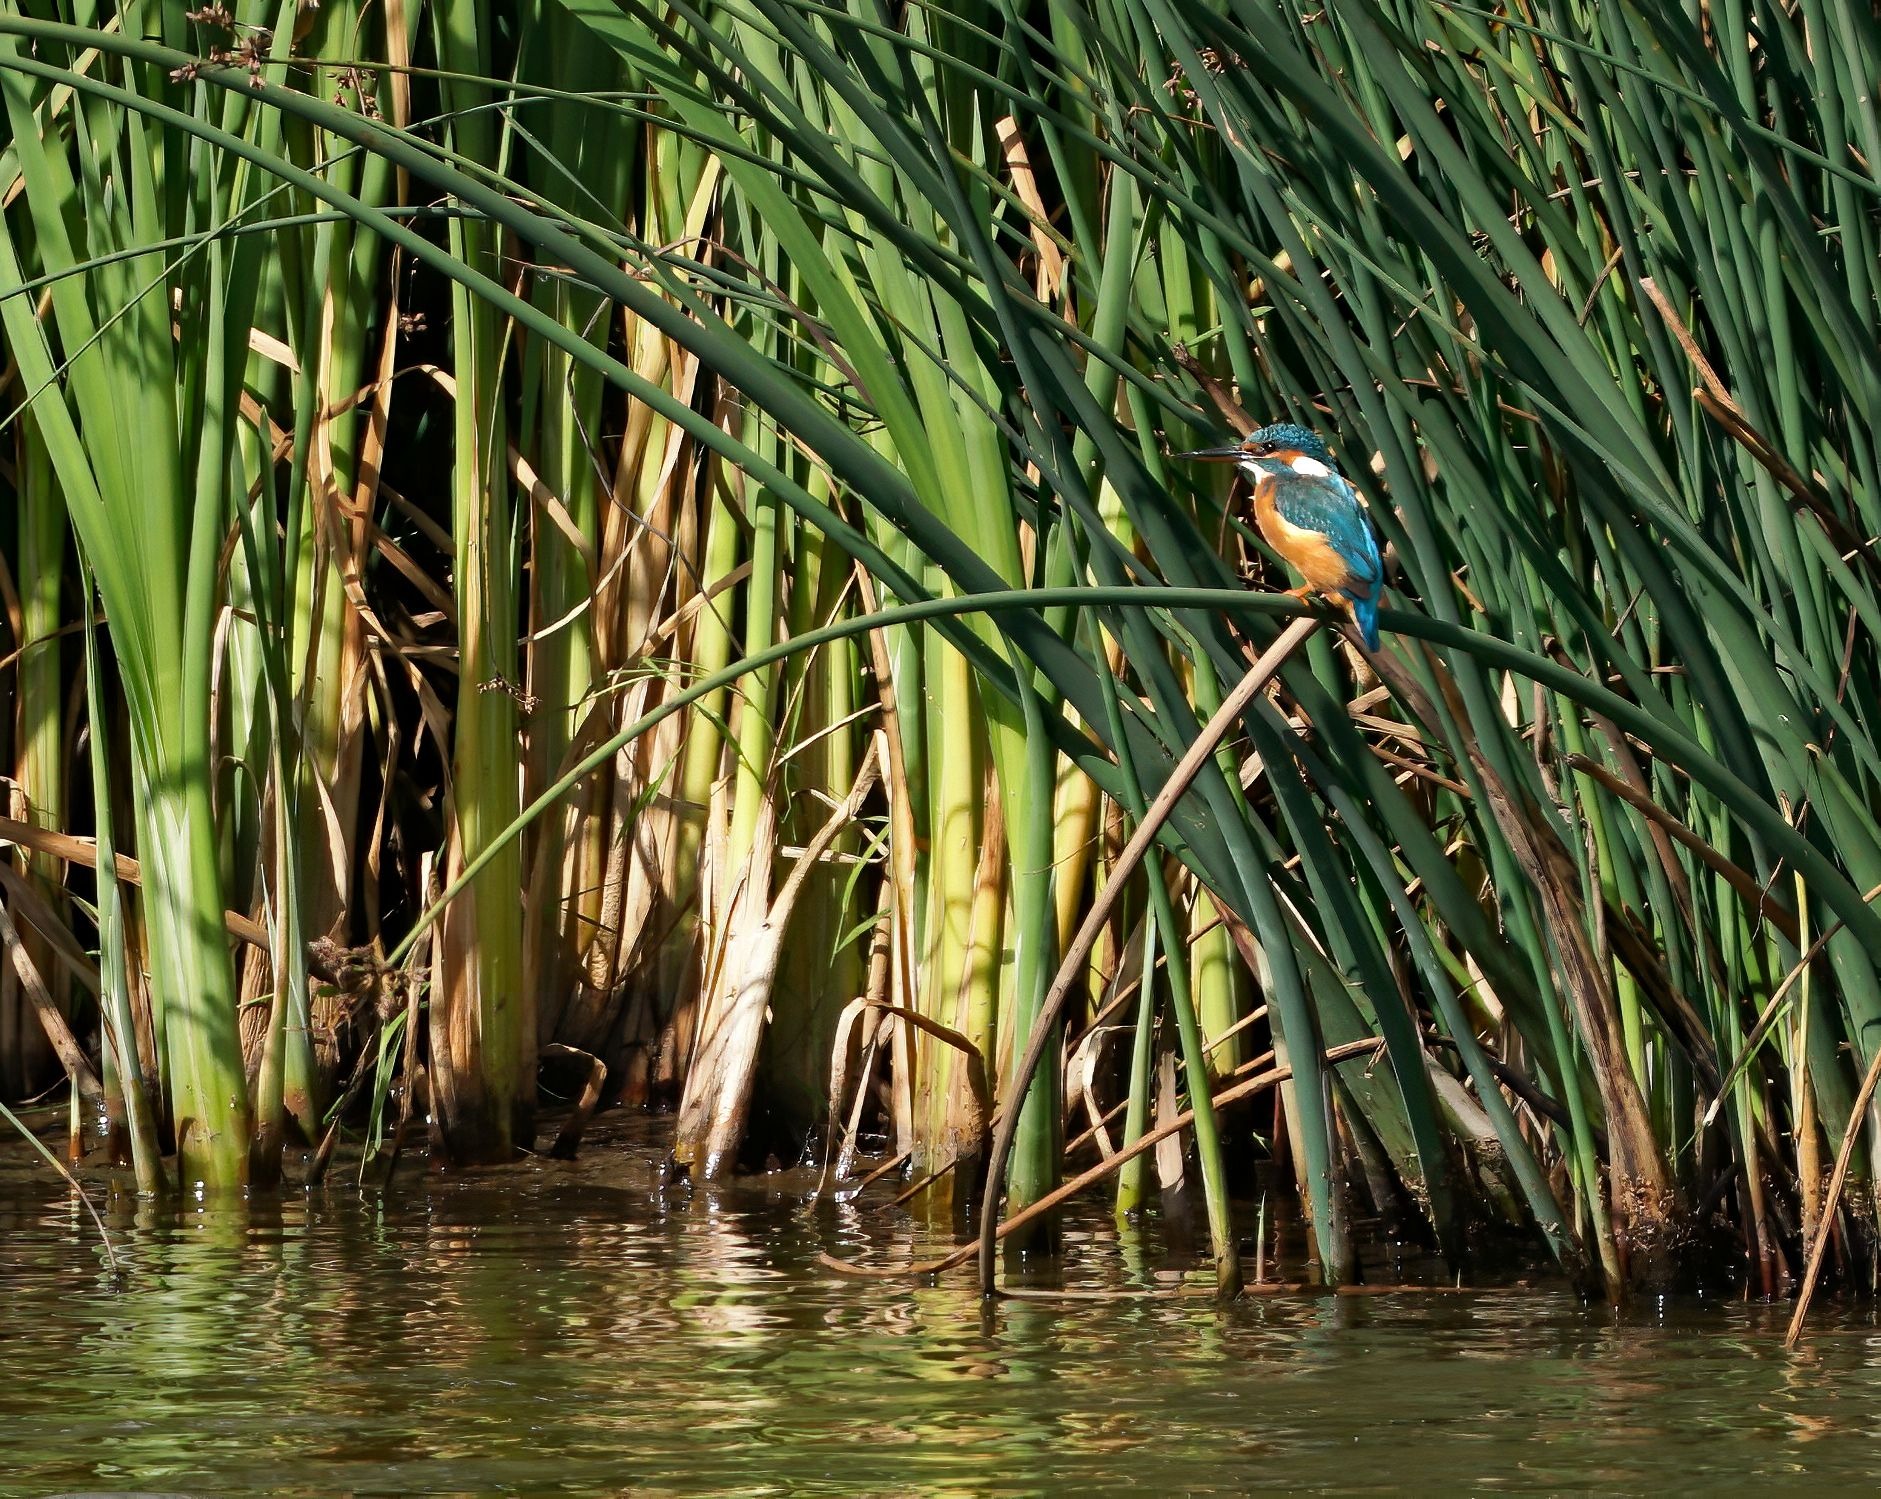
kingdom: Animalia
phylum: Chordata
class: Aves
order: Coraciiformes
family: Alcedinidae
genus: Alcedo
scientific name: Alcedo atthis
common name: Isfugl
